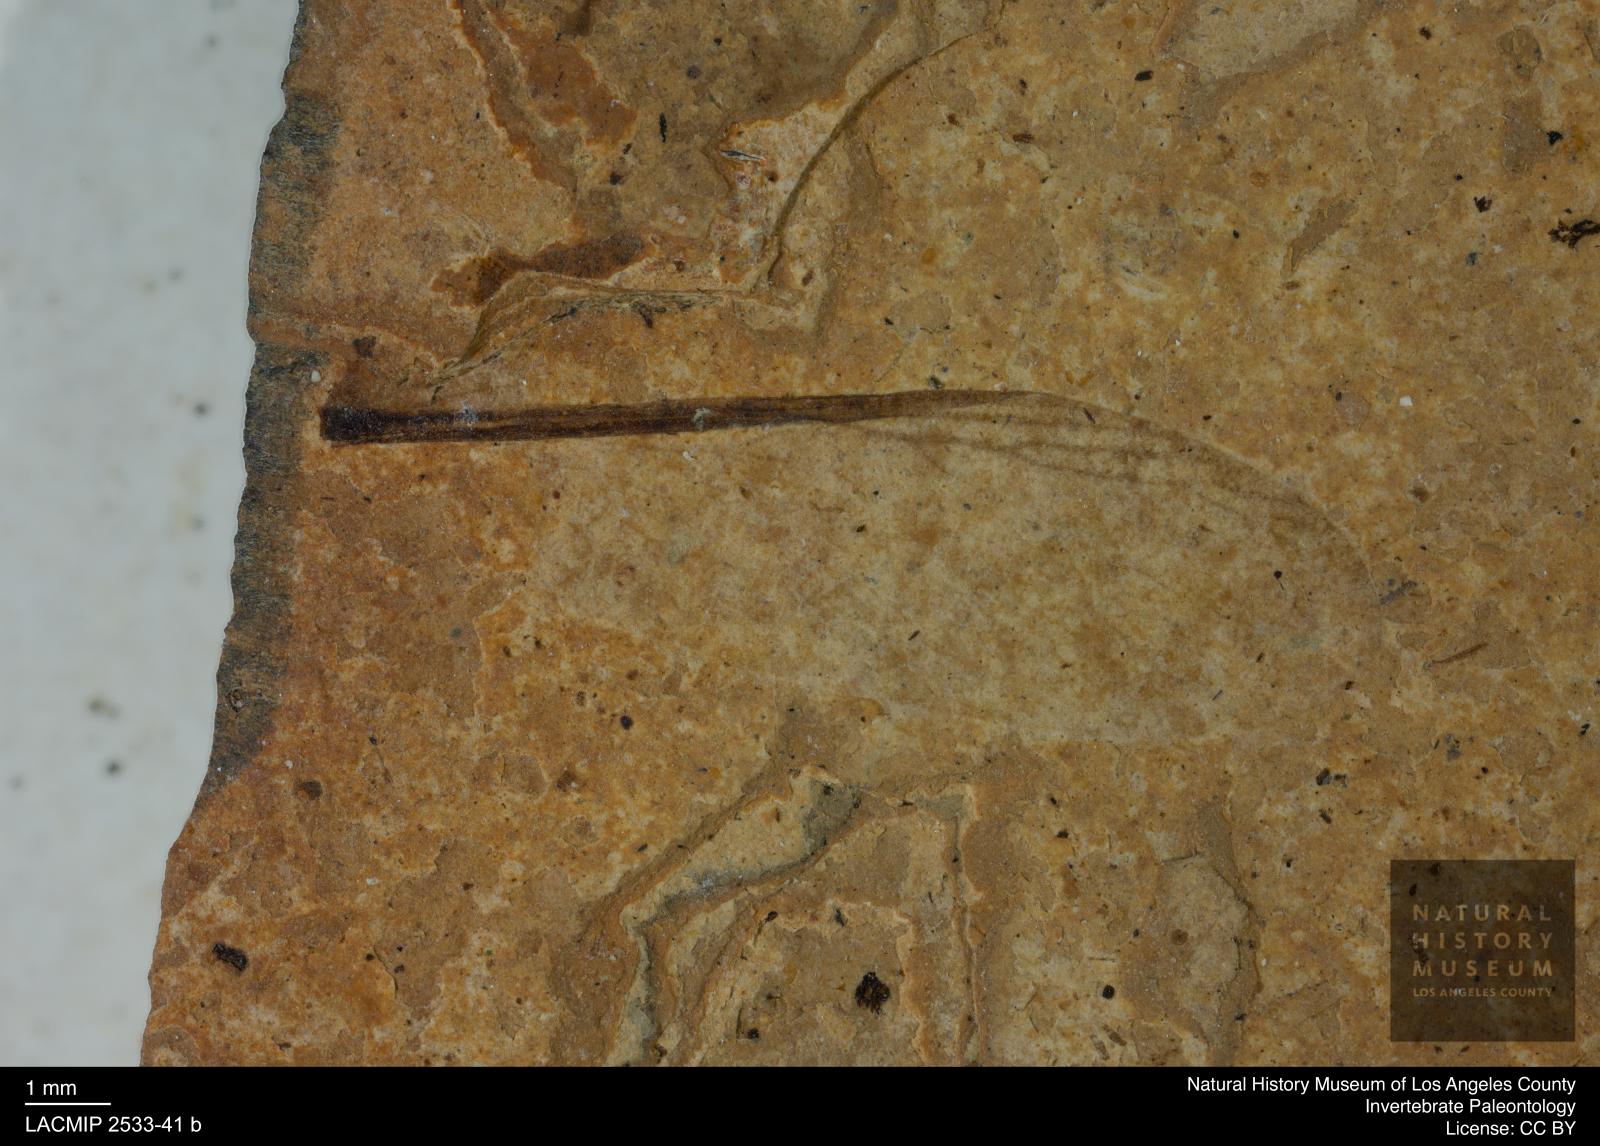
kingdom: Animalia
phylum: Arthropoda
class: Insecta
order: Blattodea
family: Hodotermitidae
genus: Ulmeriella
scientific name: Ulmeriella bauckhorni
